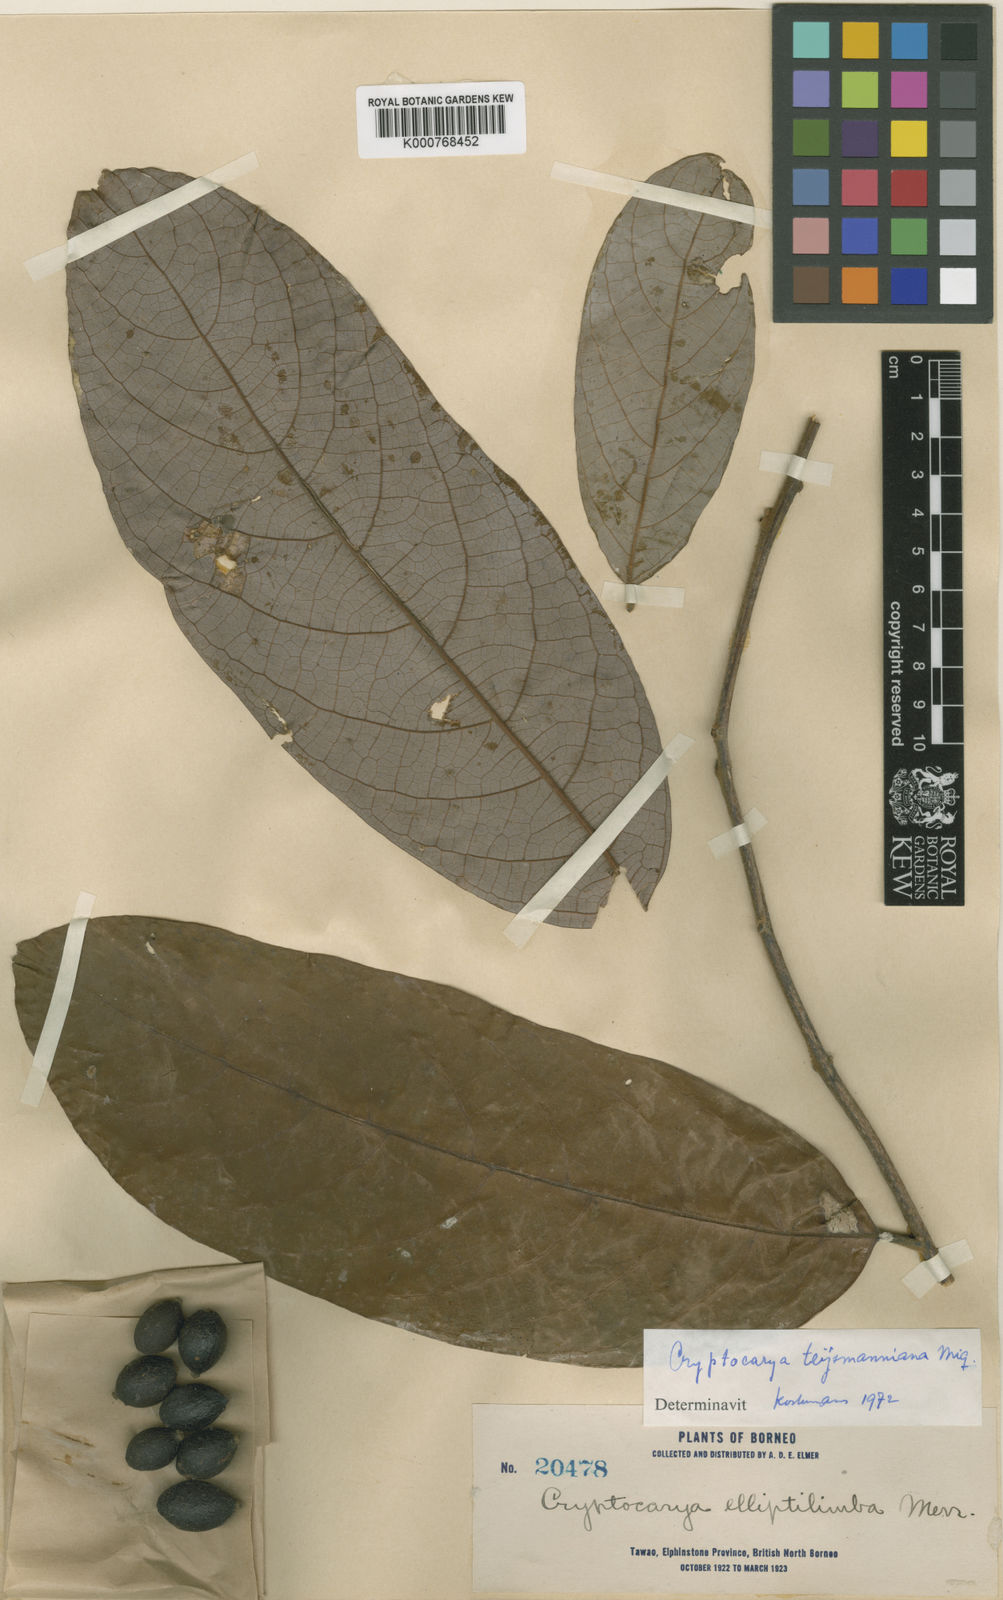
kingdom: Plantae
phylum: Tracheophyta
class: Magnoliopsida
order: Laurales
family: Lauraceae
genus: Cryptocarya
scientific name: Cryptocarya teysmanniana
